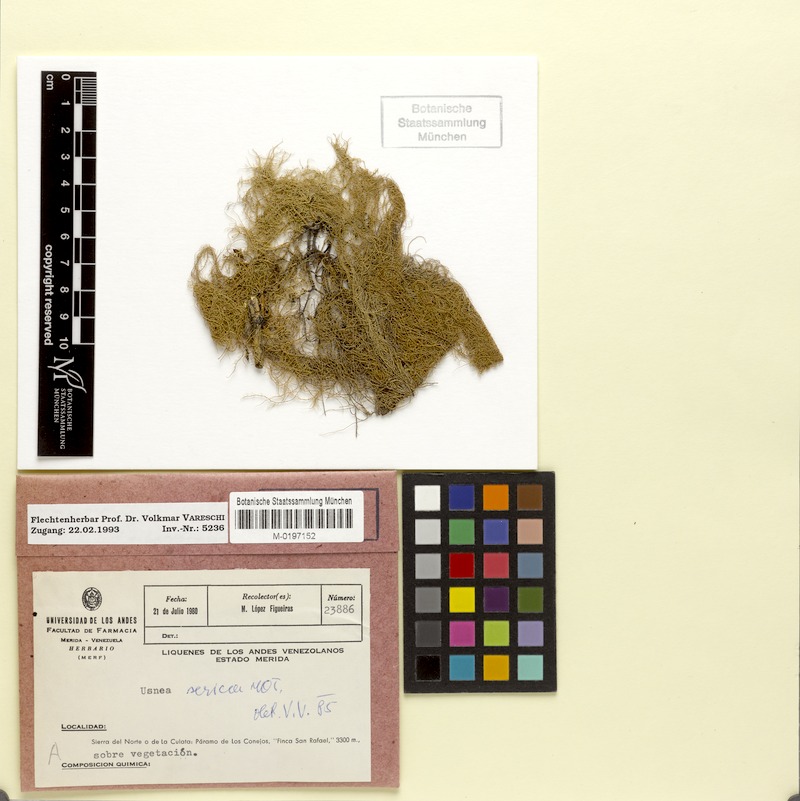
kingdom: Fungi
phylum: Ascomycota
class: Lecanoromycetes
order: Lecanorales
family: Parmeliaceae
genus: Usnea
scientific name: Usnea
